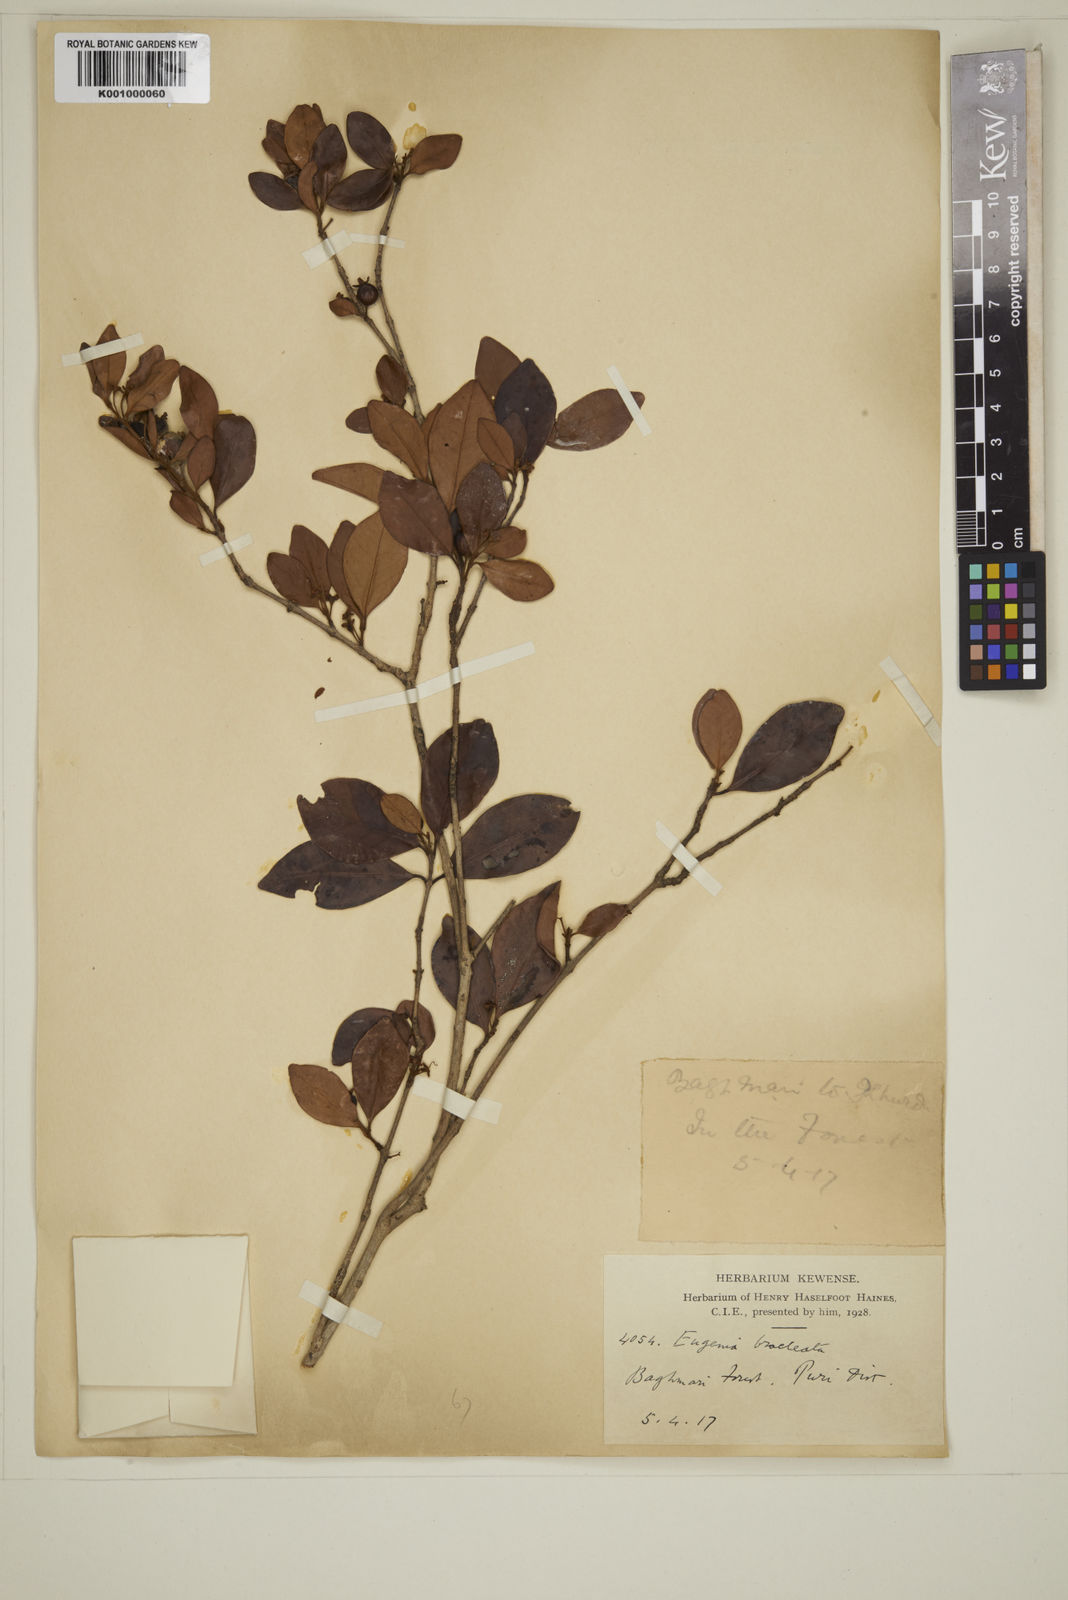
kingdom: Plantae
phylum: Tracheophyta
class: Magnoliopsida
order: Myrtales
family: Myrtaceae
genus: Myrcia
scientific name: Myrcia bracteata
